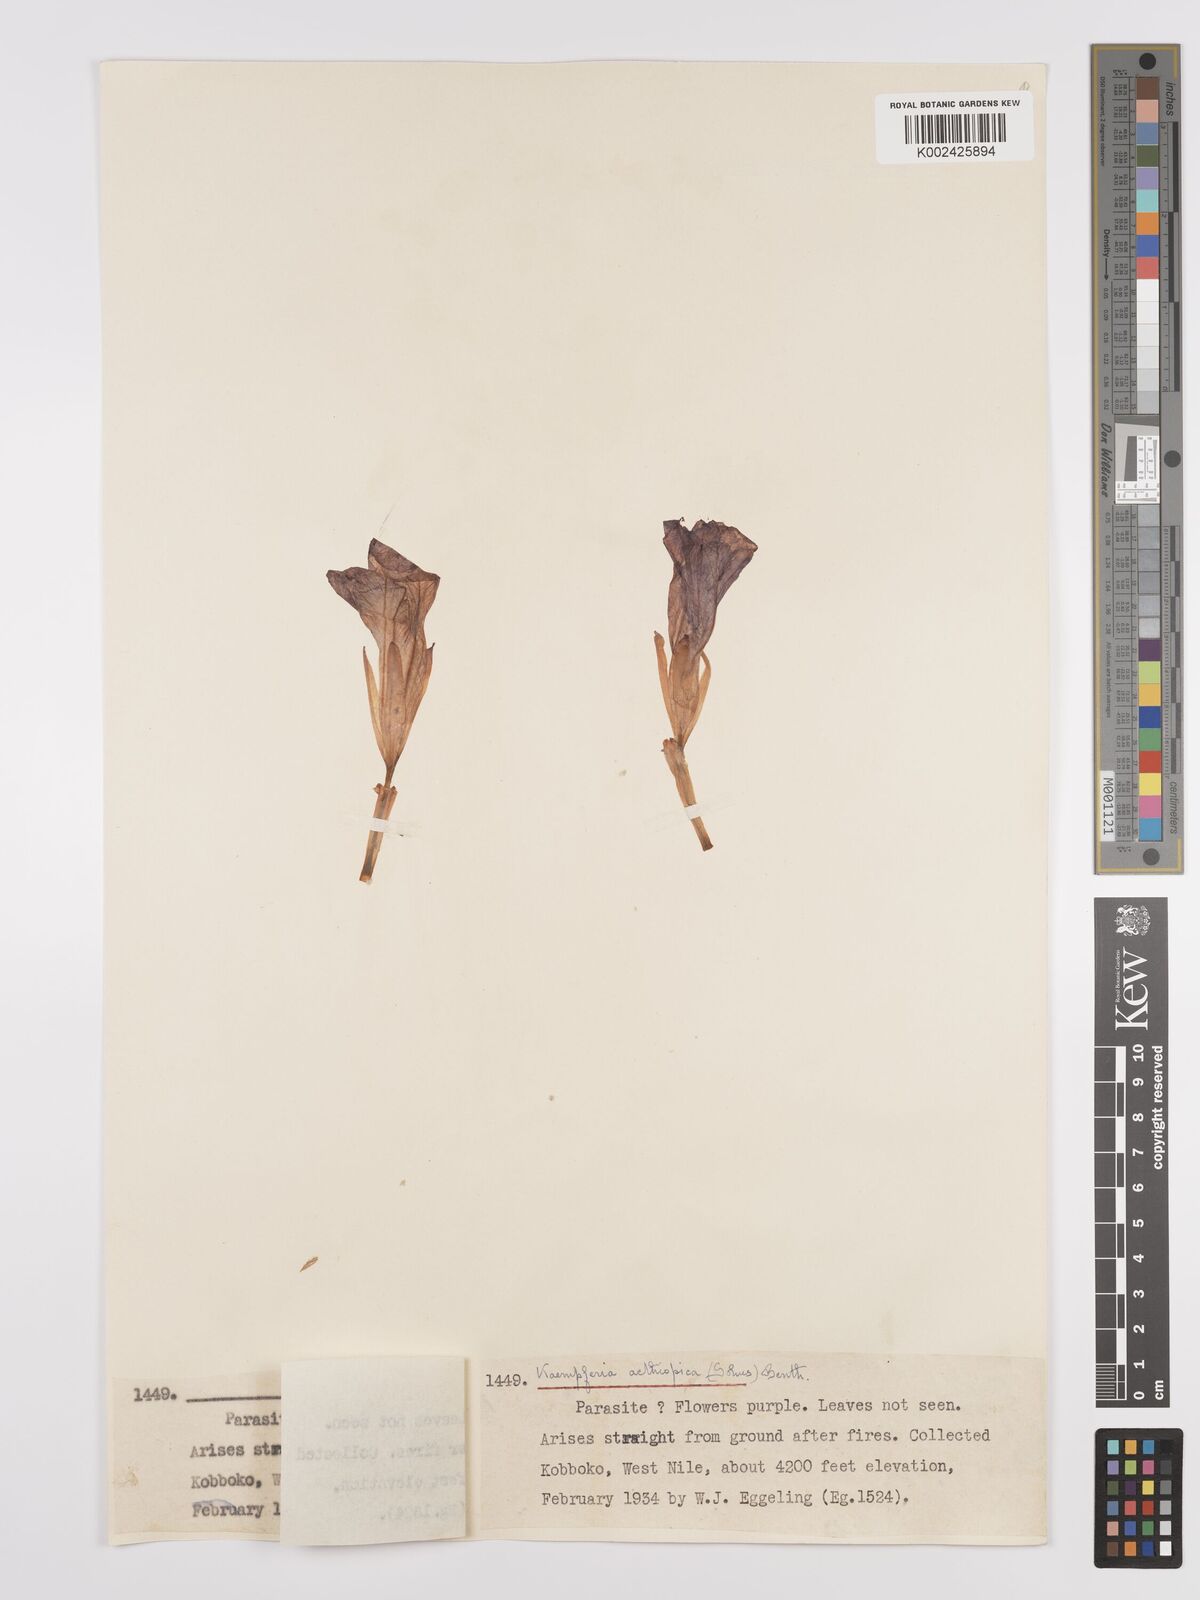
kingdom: Plantae
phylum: Tracheophyta
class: Liliopsida
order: Zingiberales
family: Zingiberaceae
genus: Siphonochilus
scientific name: Siphonochilus aethiopicus
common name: African-ginger
